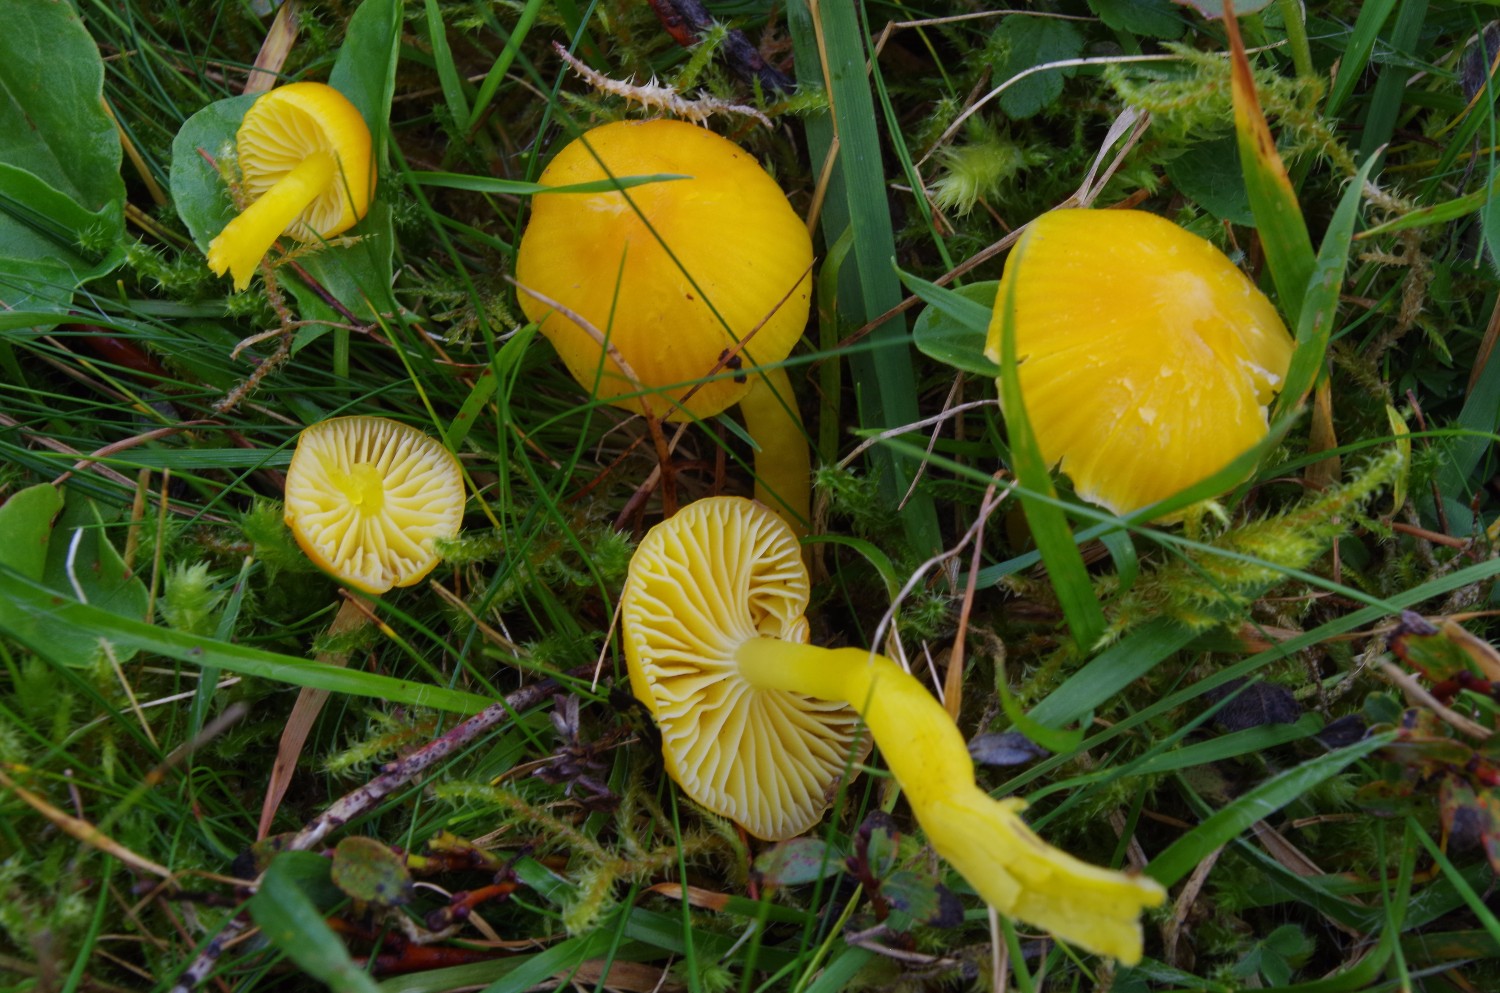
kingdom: Fungi
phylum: Basidiomycota
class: Agaricomycetes
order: Agaricales
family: Hygrophoraceae
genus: Hygrocybe
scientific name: Hygrocybe ceracea
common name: voksgul vokshat
